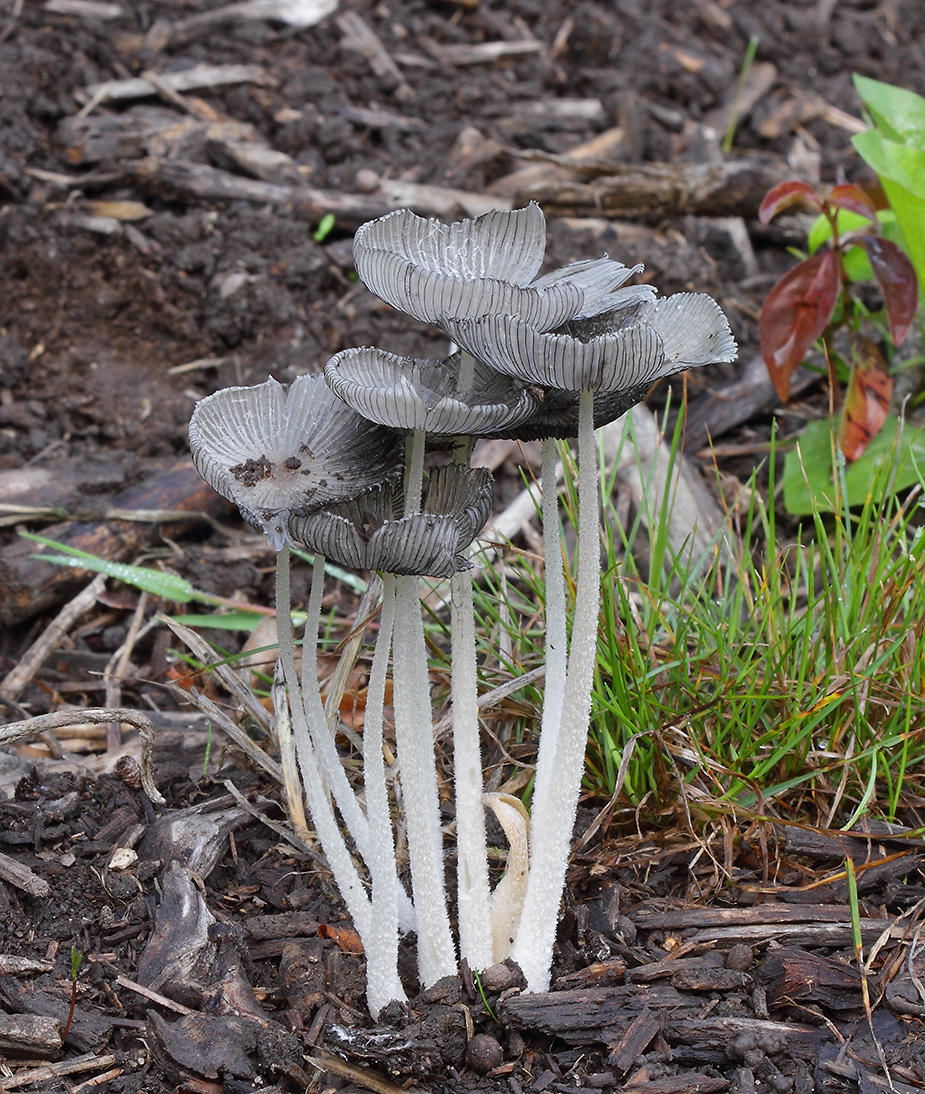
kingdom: Fungi
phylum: Basidiomycota
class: Agaricomycetes
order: Agaricales
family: Psathyrellaceae
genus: Coprinopsis
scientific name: Coprinopsis lagopus
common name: dunstokket blækhat
